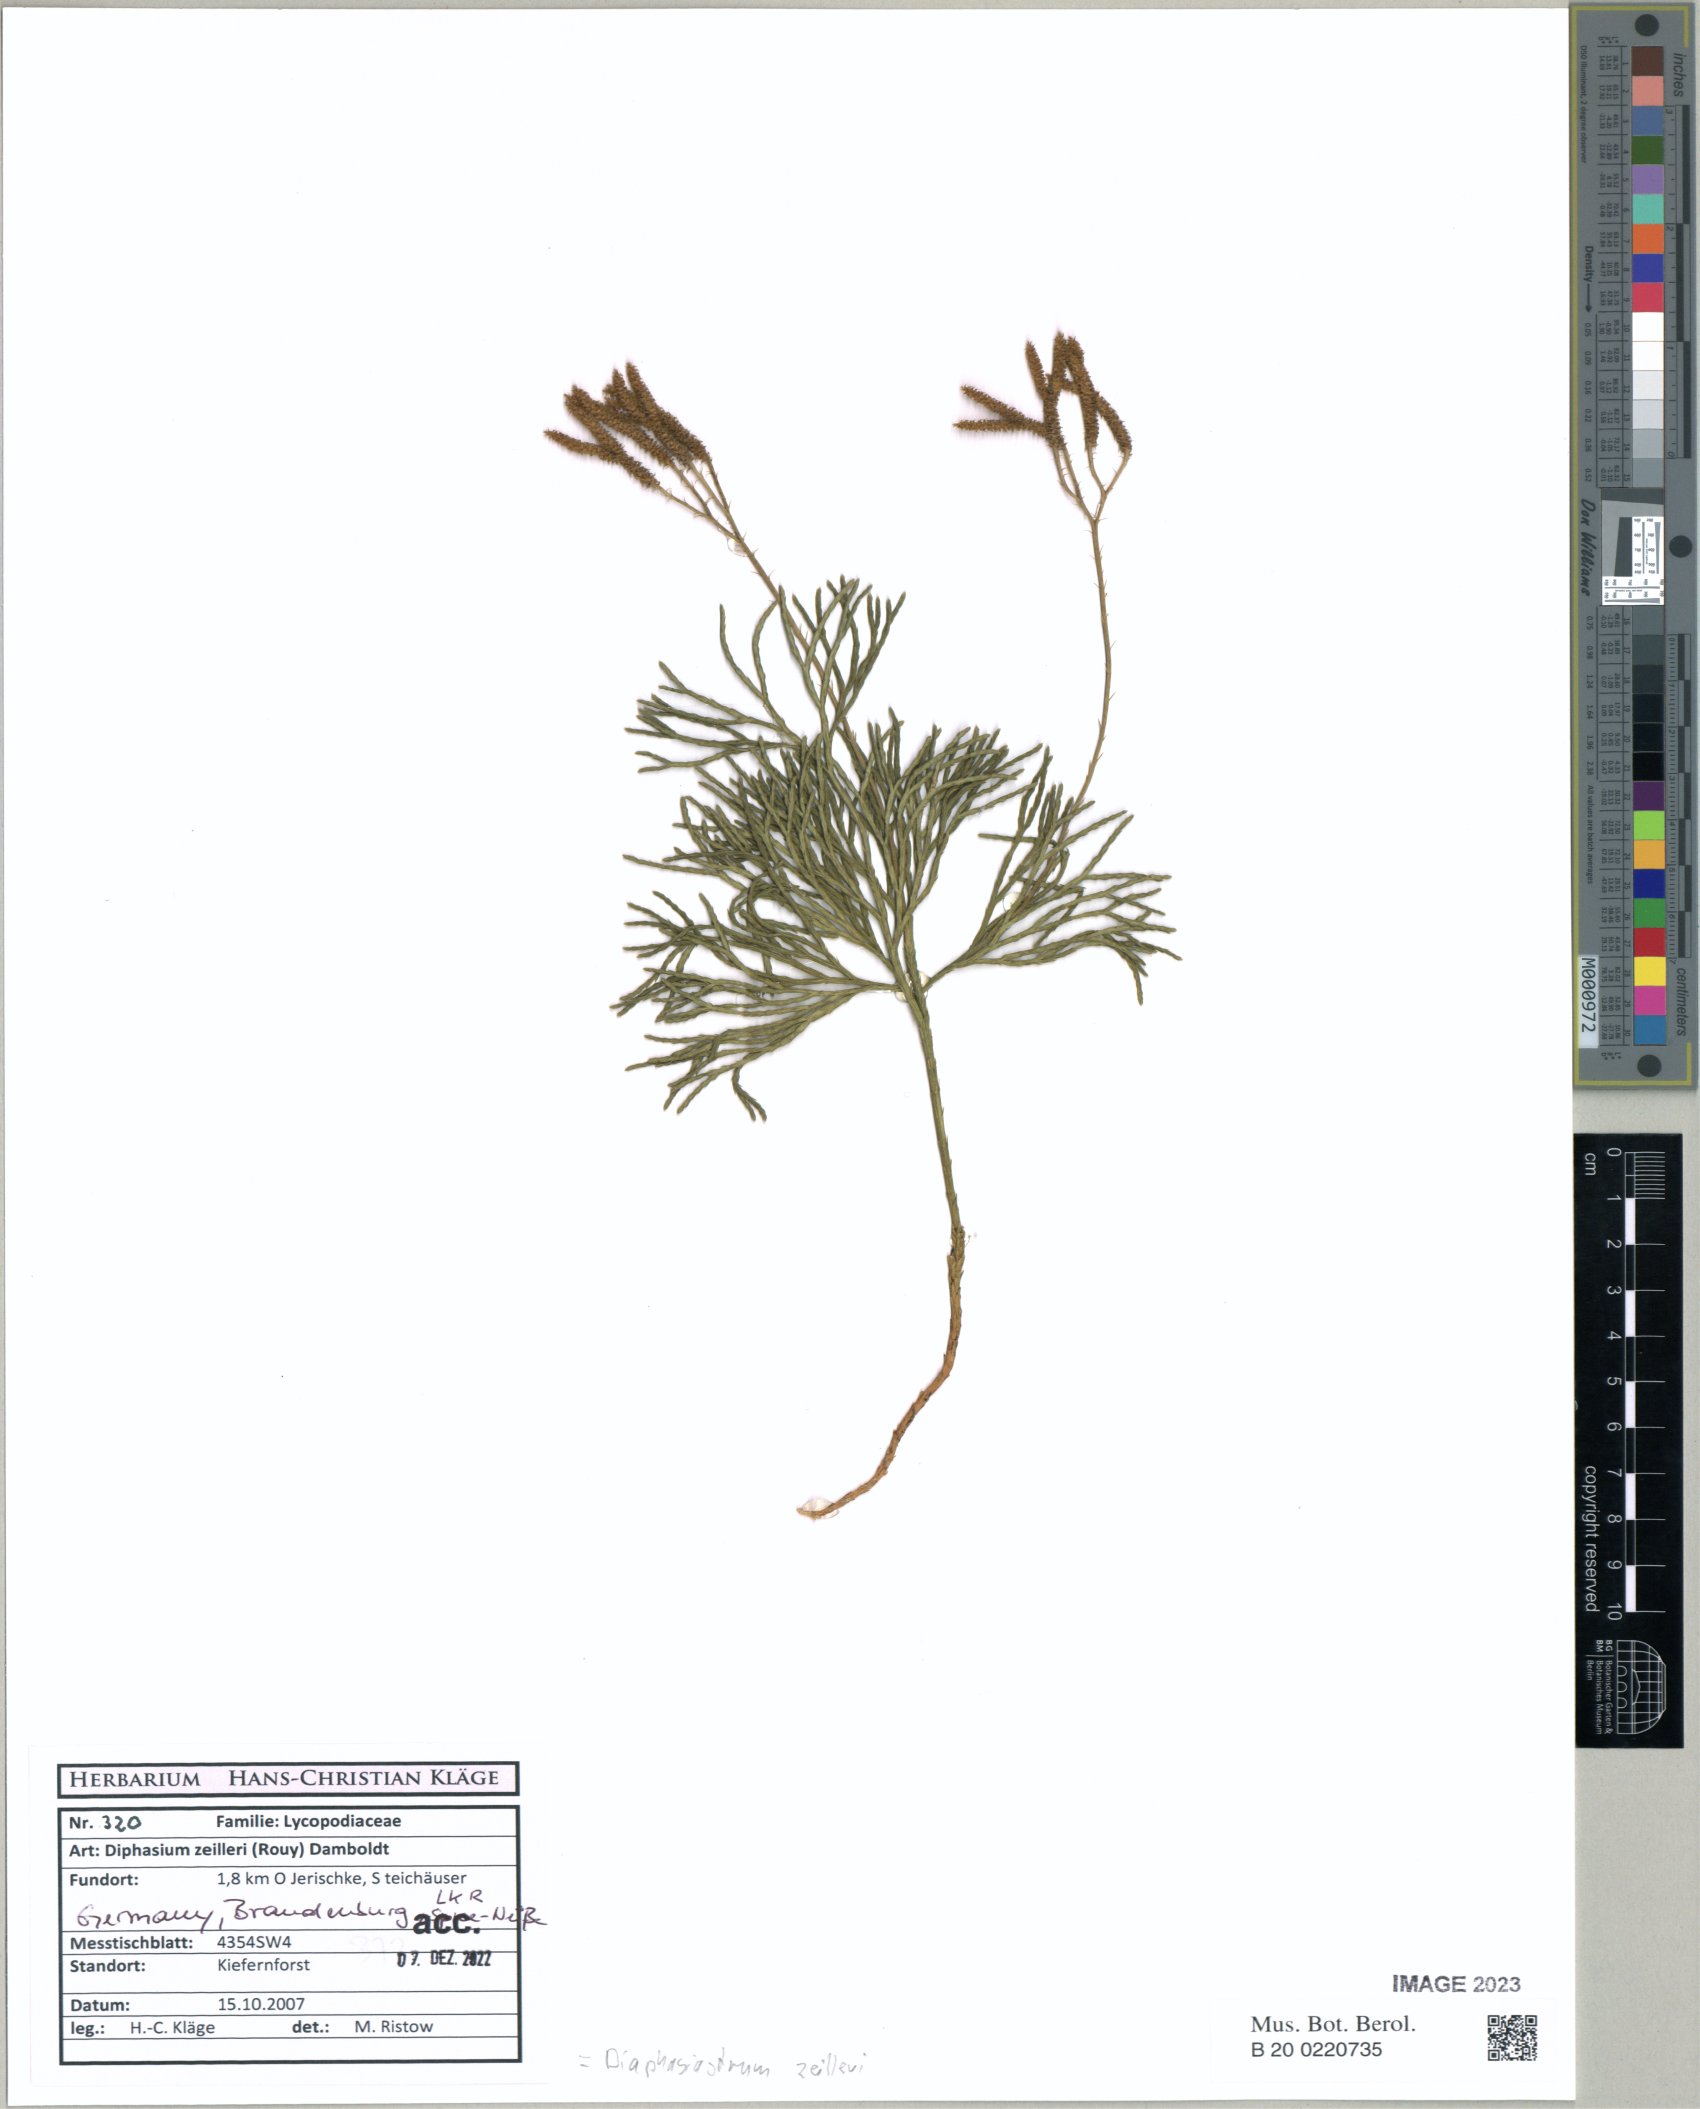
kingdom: Plantae
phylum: Tracheophyta
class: Lycopodiopsida
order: Lycopodiales
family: Lycopodiaceae
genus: Diphasiastrum
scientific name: Diphasiastrum zeilleri
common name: Zeiller's clubmoss
